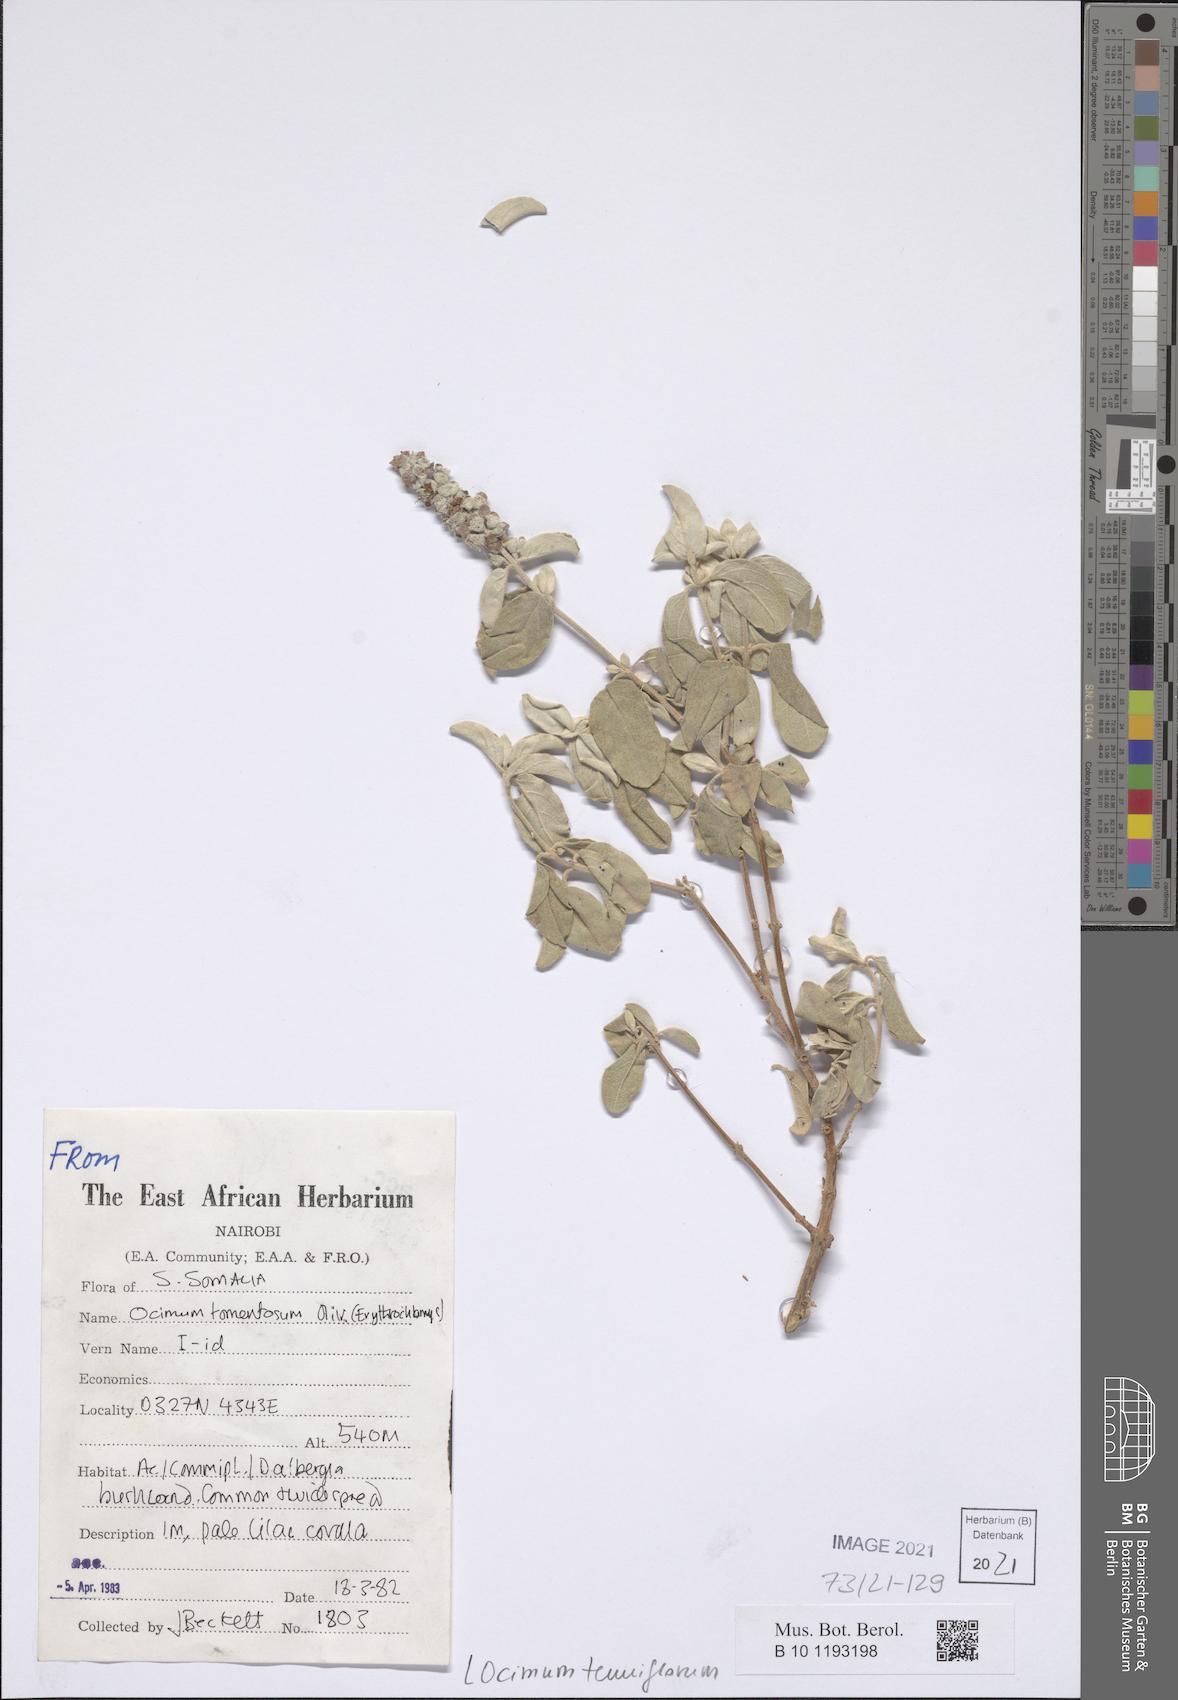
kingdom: Plantae
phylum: Tracheophyta
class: Magnoliopsida
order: Lamiales
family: Lamiaceae
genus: Ocimum
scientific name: Ocimum tenuiflorum
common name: Sacred basil
